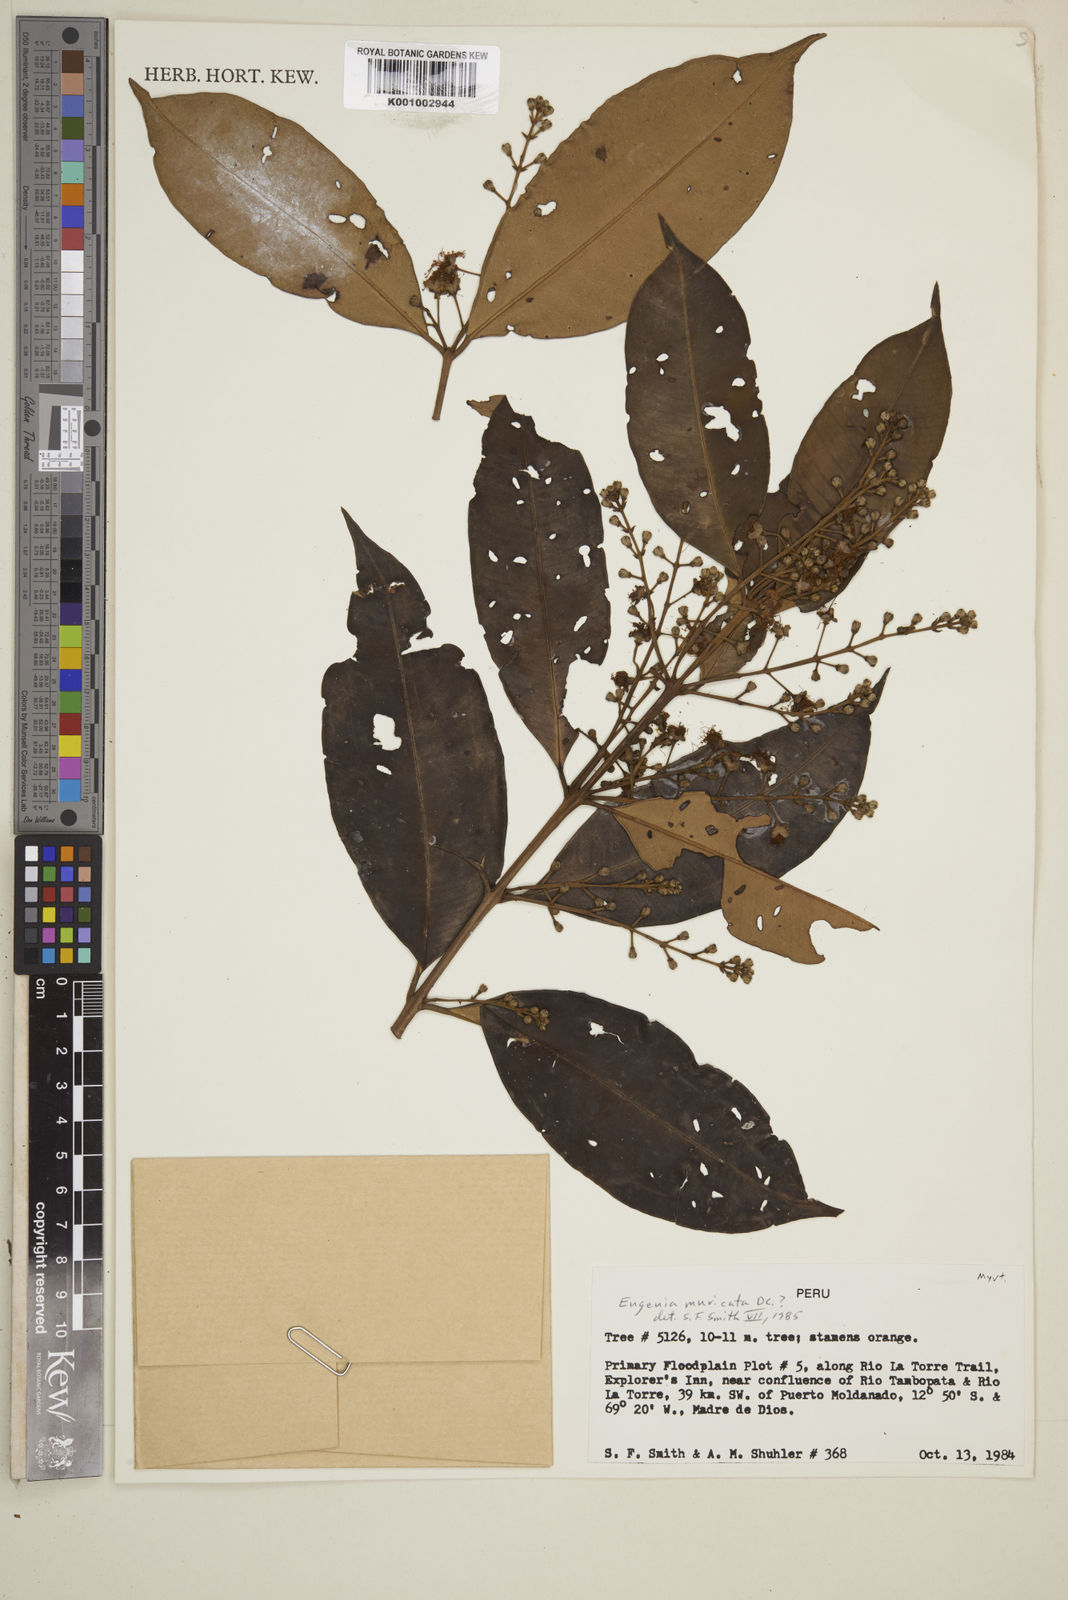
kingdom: Plantae
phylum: Tracheophyta
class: Magnoliopsida
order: Myrtales
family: Myrtaceae
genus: Eugenia
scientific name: Eugenia muricata
